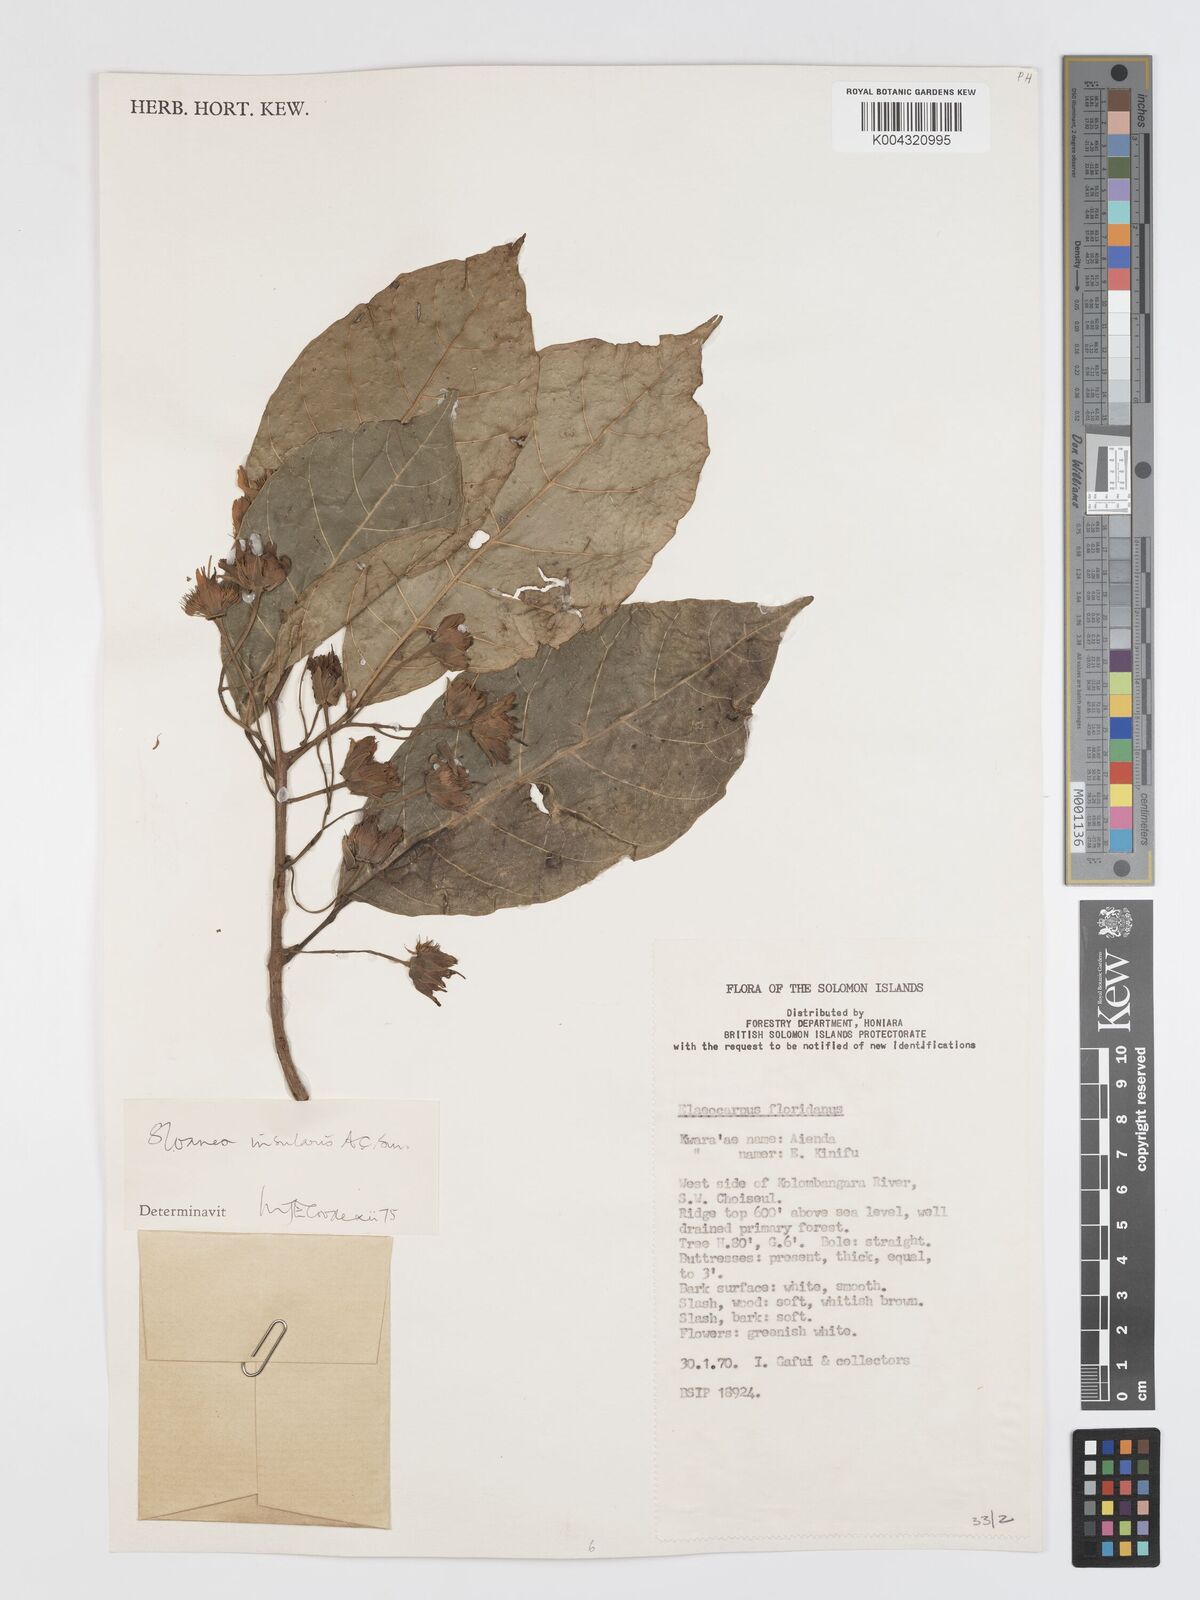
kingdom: Plantae
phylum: Tracheophyta
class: Magnoliopsida
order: Oxalidales
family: Elaeocarpaceae
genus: Sloanea
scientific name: Sloanea insularis
